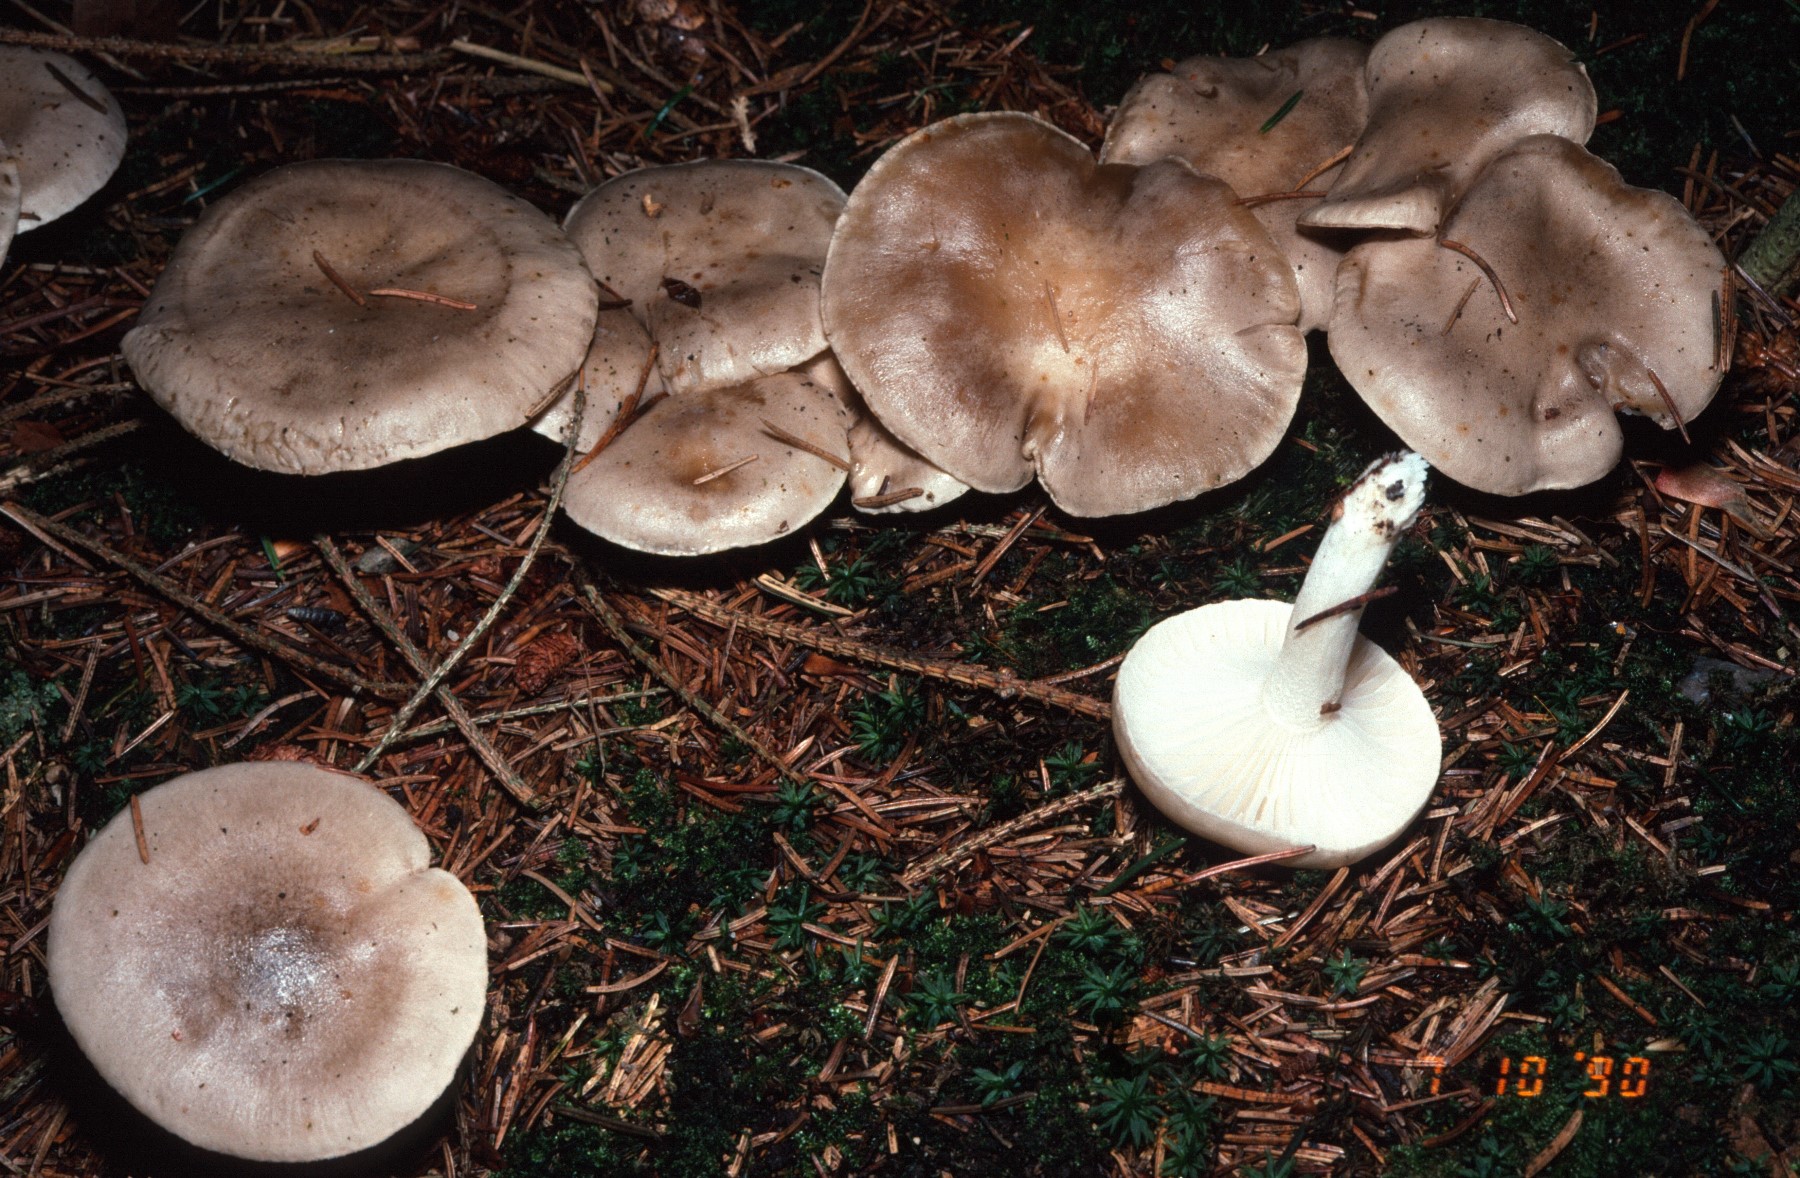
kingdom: Fungi
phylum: Basidiomycota
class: Agaricomycetes
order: Agaricales
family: Hygrophoraceae
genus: Hygrophorus
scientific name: Hygrophorus agathosmus
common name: vellugtende sneglehat
